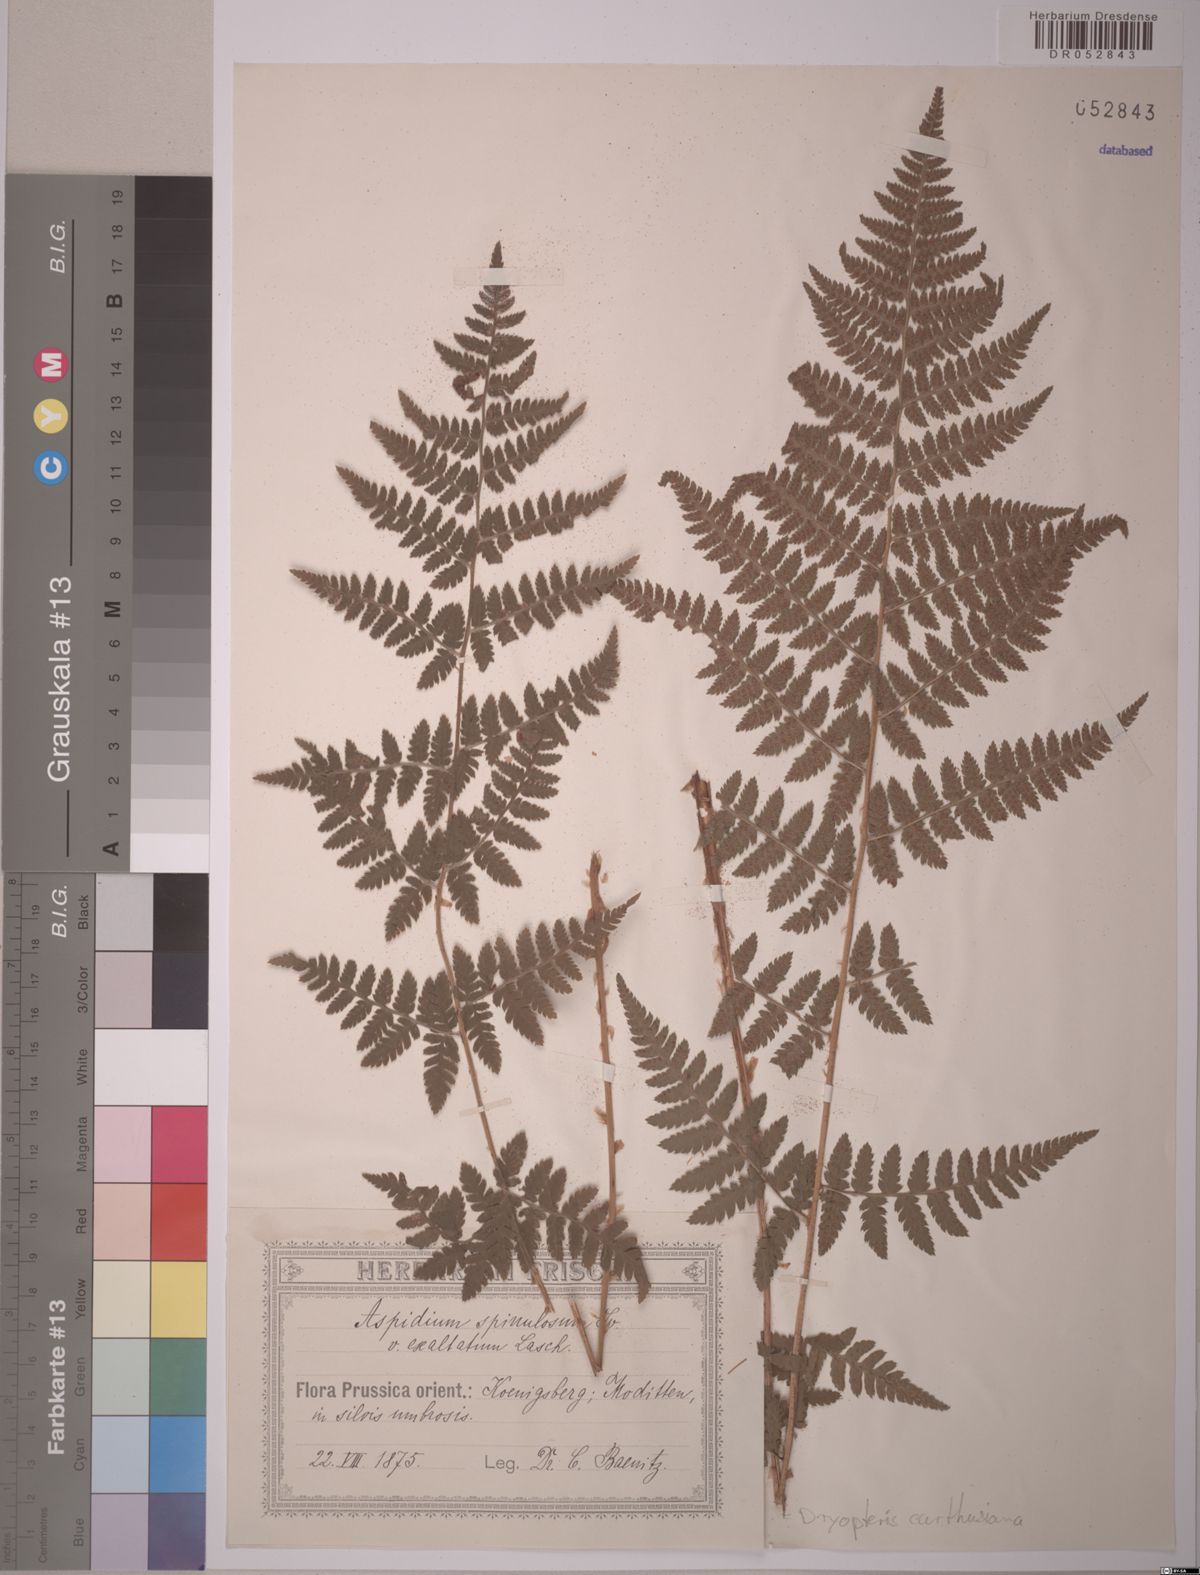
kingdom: Plantae
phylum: Tracheophyta
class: Polypodiopsida
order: Polypodiales
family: Dryopteridaceae
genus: Dryopteris
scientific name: Dryopteris carthusiana
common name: Narrow buckler-fern
